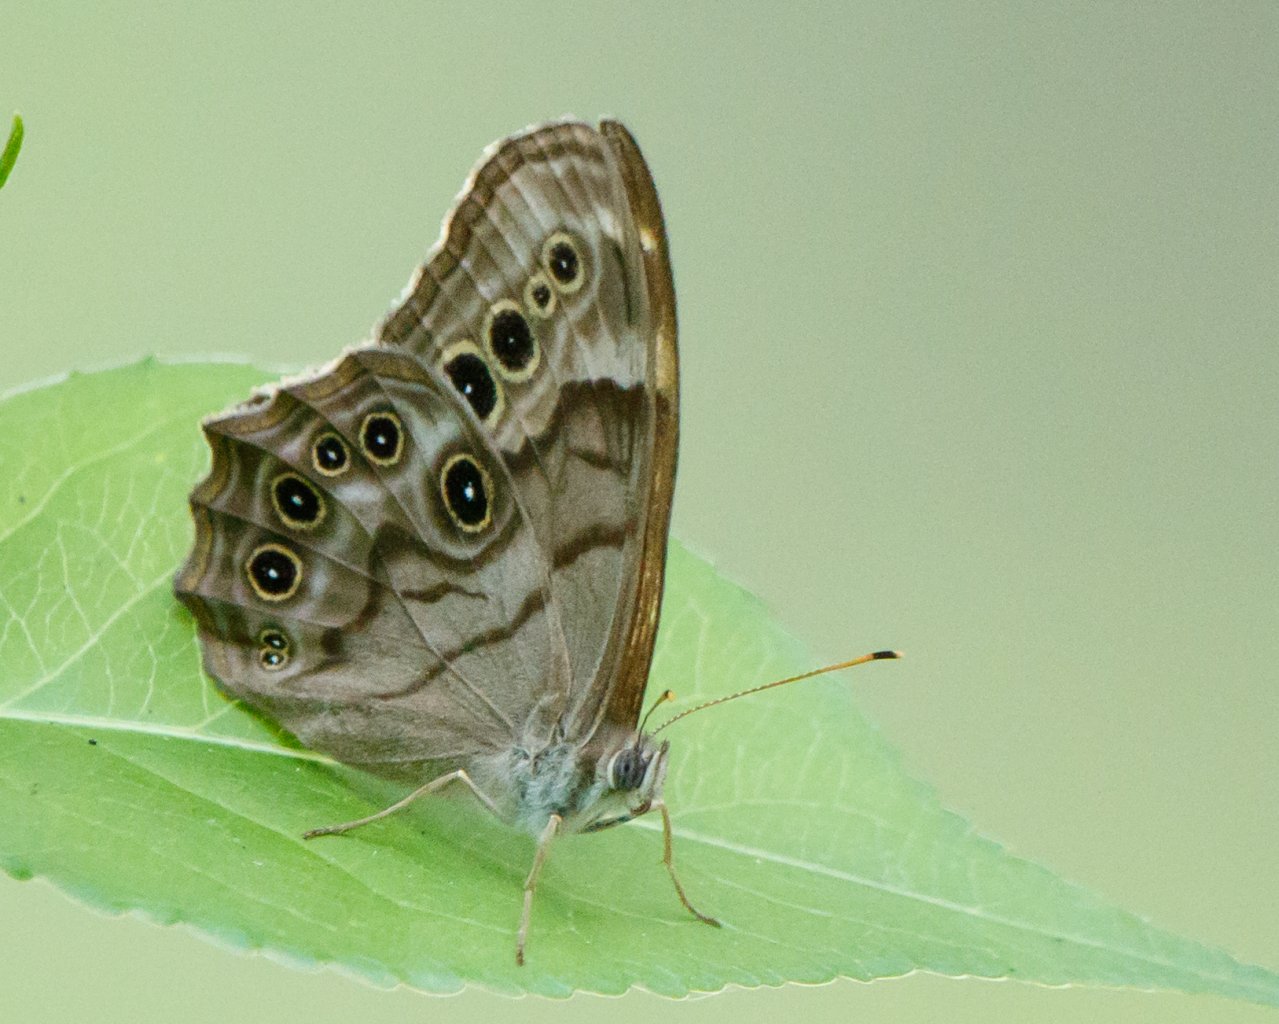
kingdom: Animalia
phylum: Arthropoda
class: Insecta
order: Lepidoptera
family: Nymphalidae
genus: Lethe
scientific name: Lethe anthedon
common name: Northern Pearly-Eye
